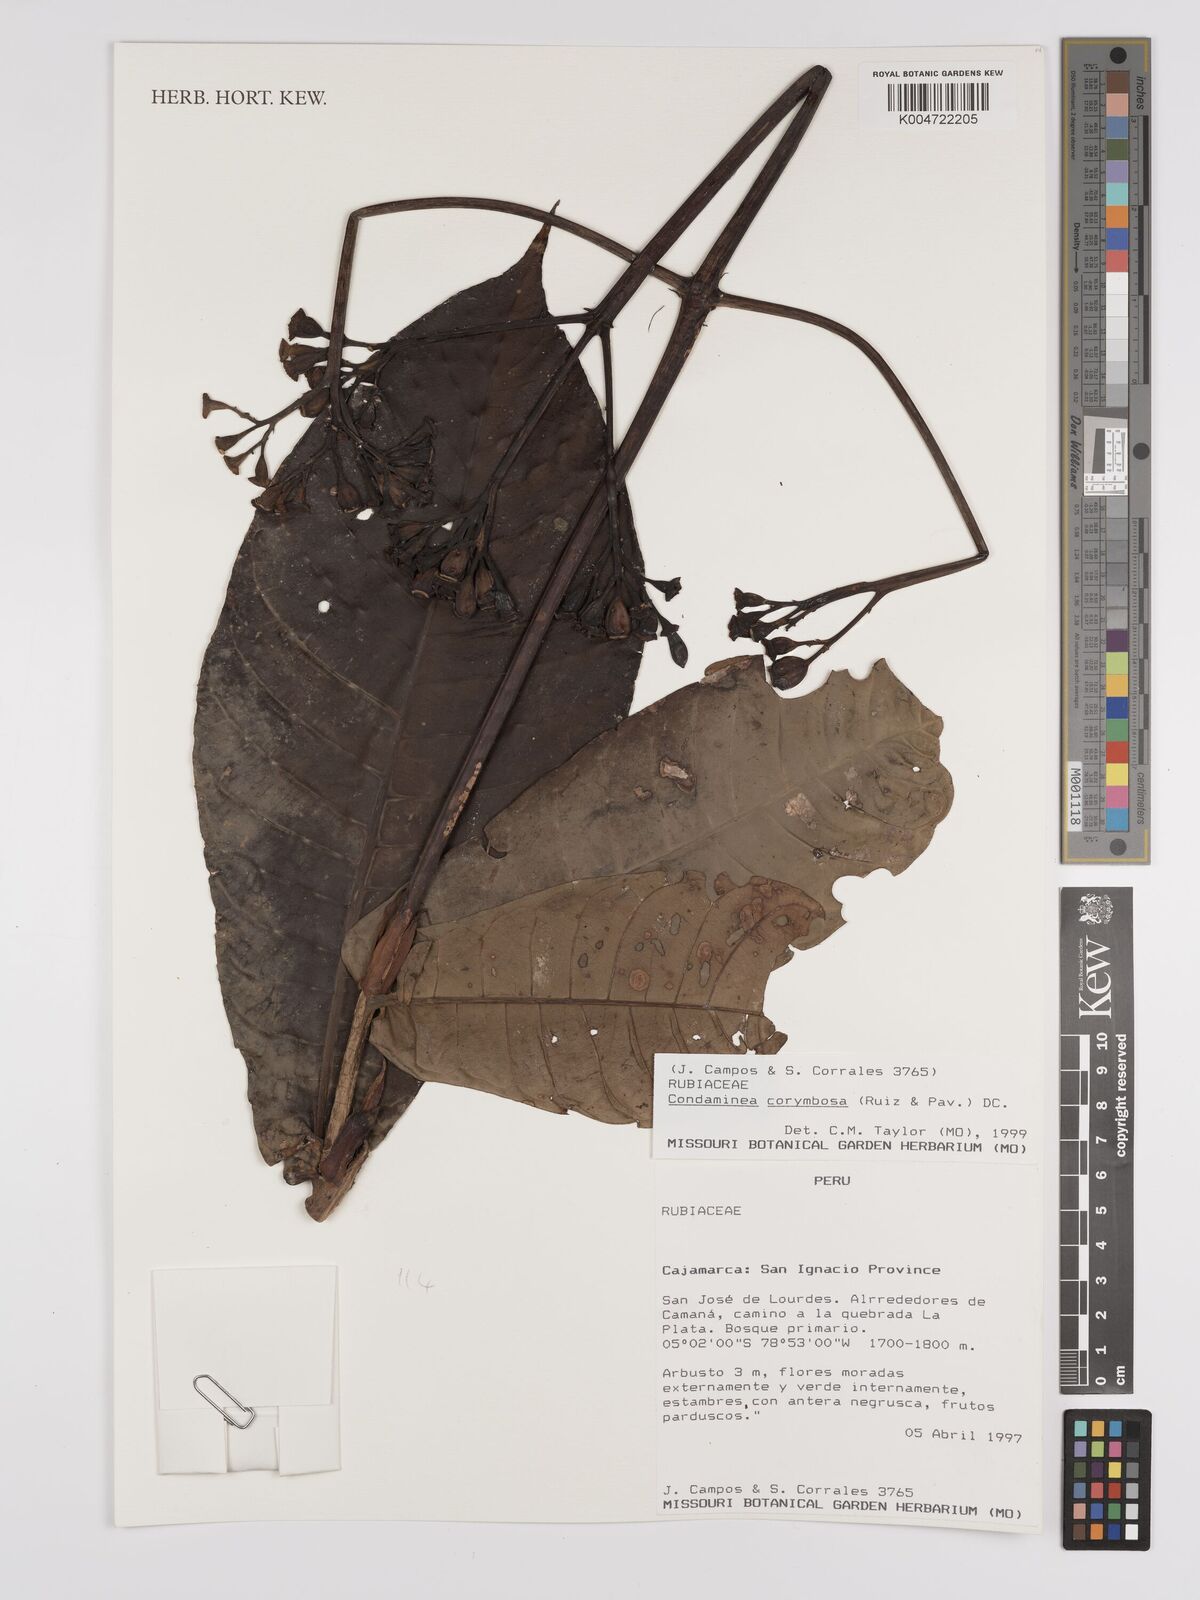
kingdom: Plantae
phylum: Tracheophyta
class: Magnoliopsida
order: Gentianales
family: Rubiaceae
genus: Condaminea
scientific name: Condaminea corymbosa
